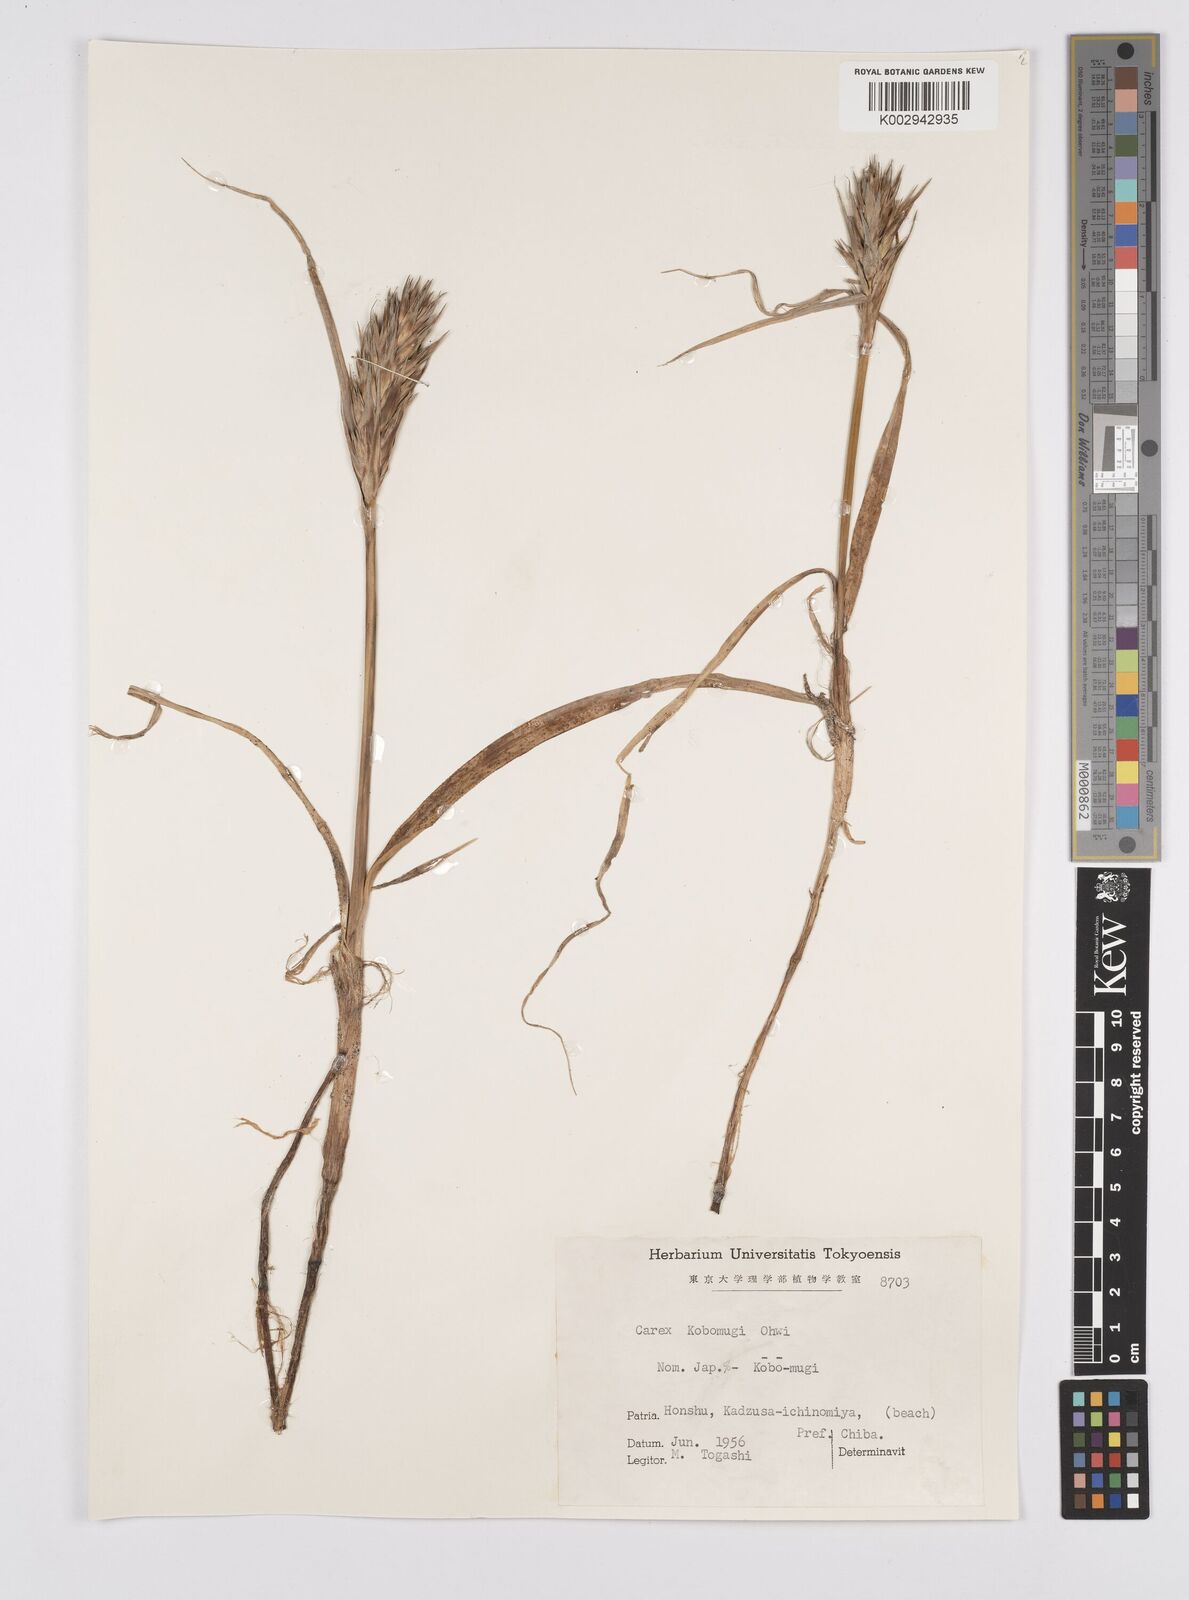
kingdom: Plantae
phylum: Tracheophyta
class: Liliopsida
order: Poales
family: Cyperaceae
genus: Carex
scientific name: Carex kobomugi
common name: Japanese sedge
